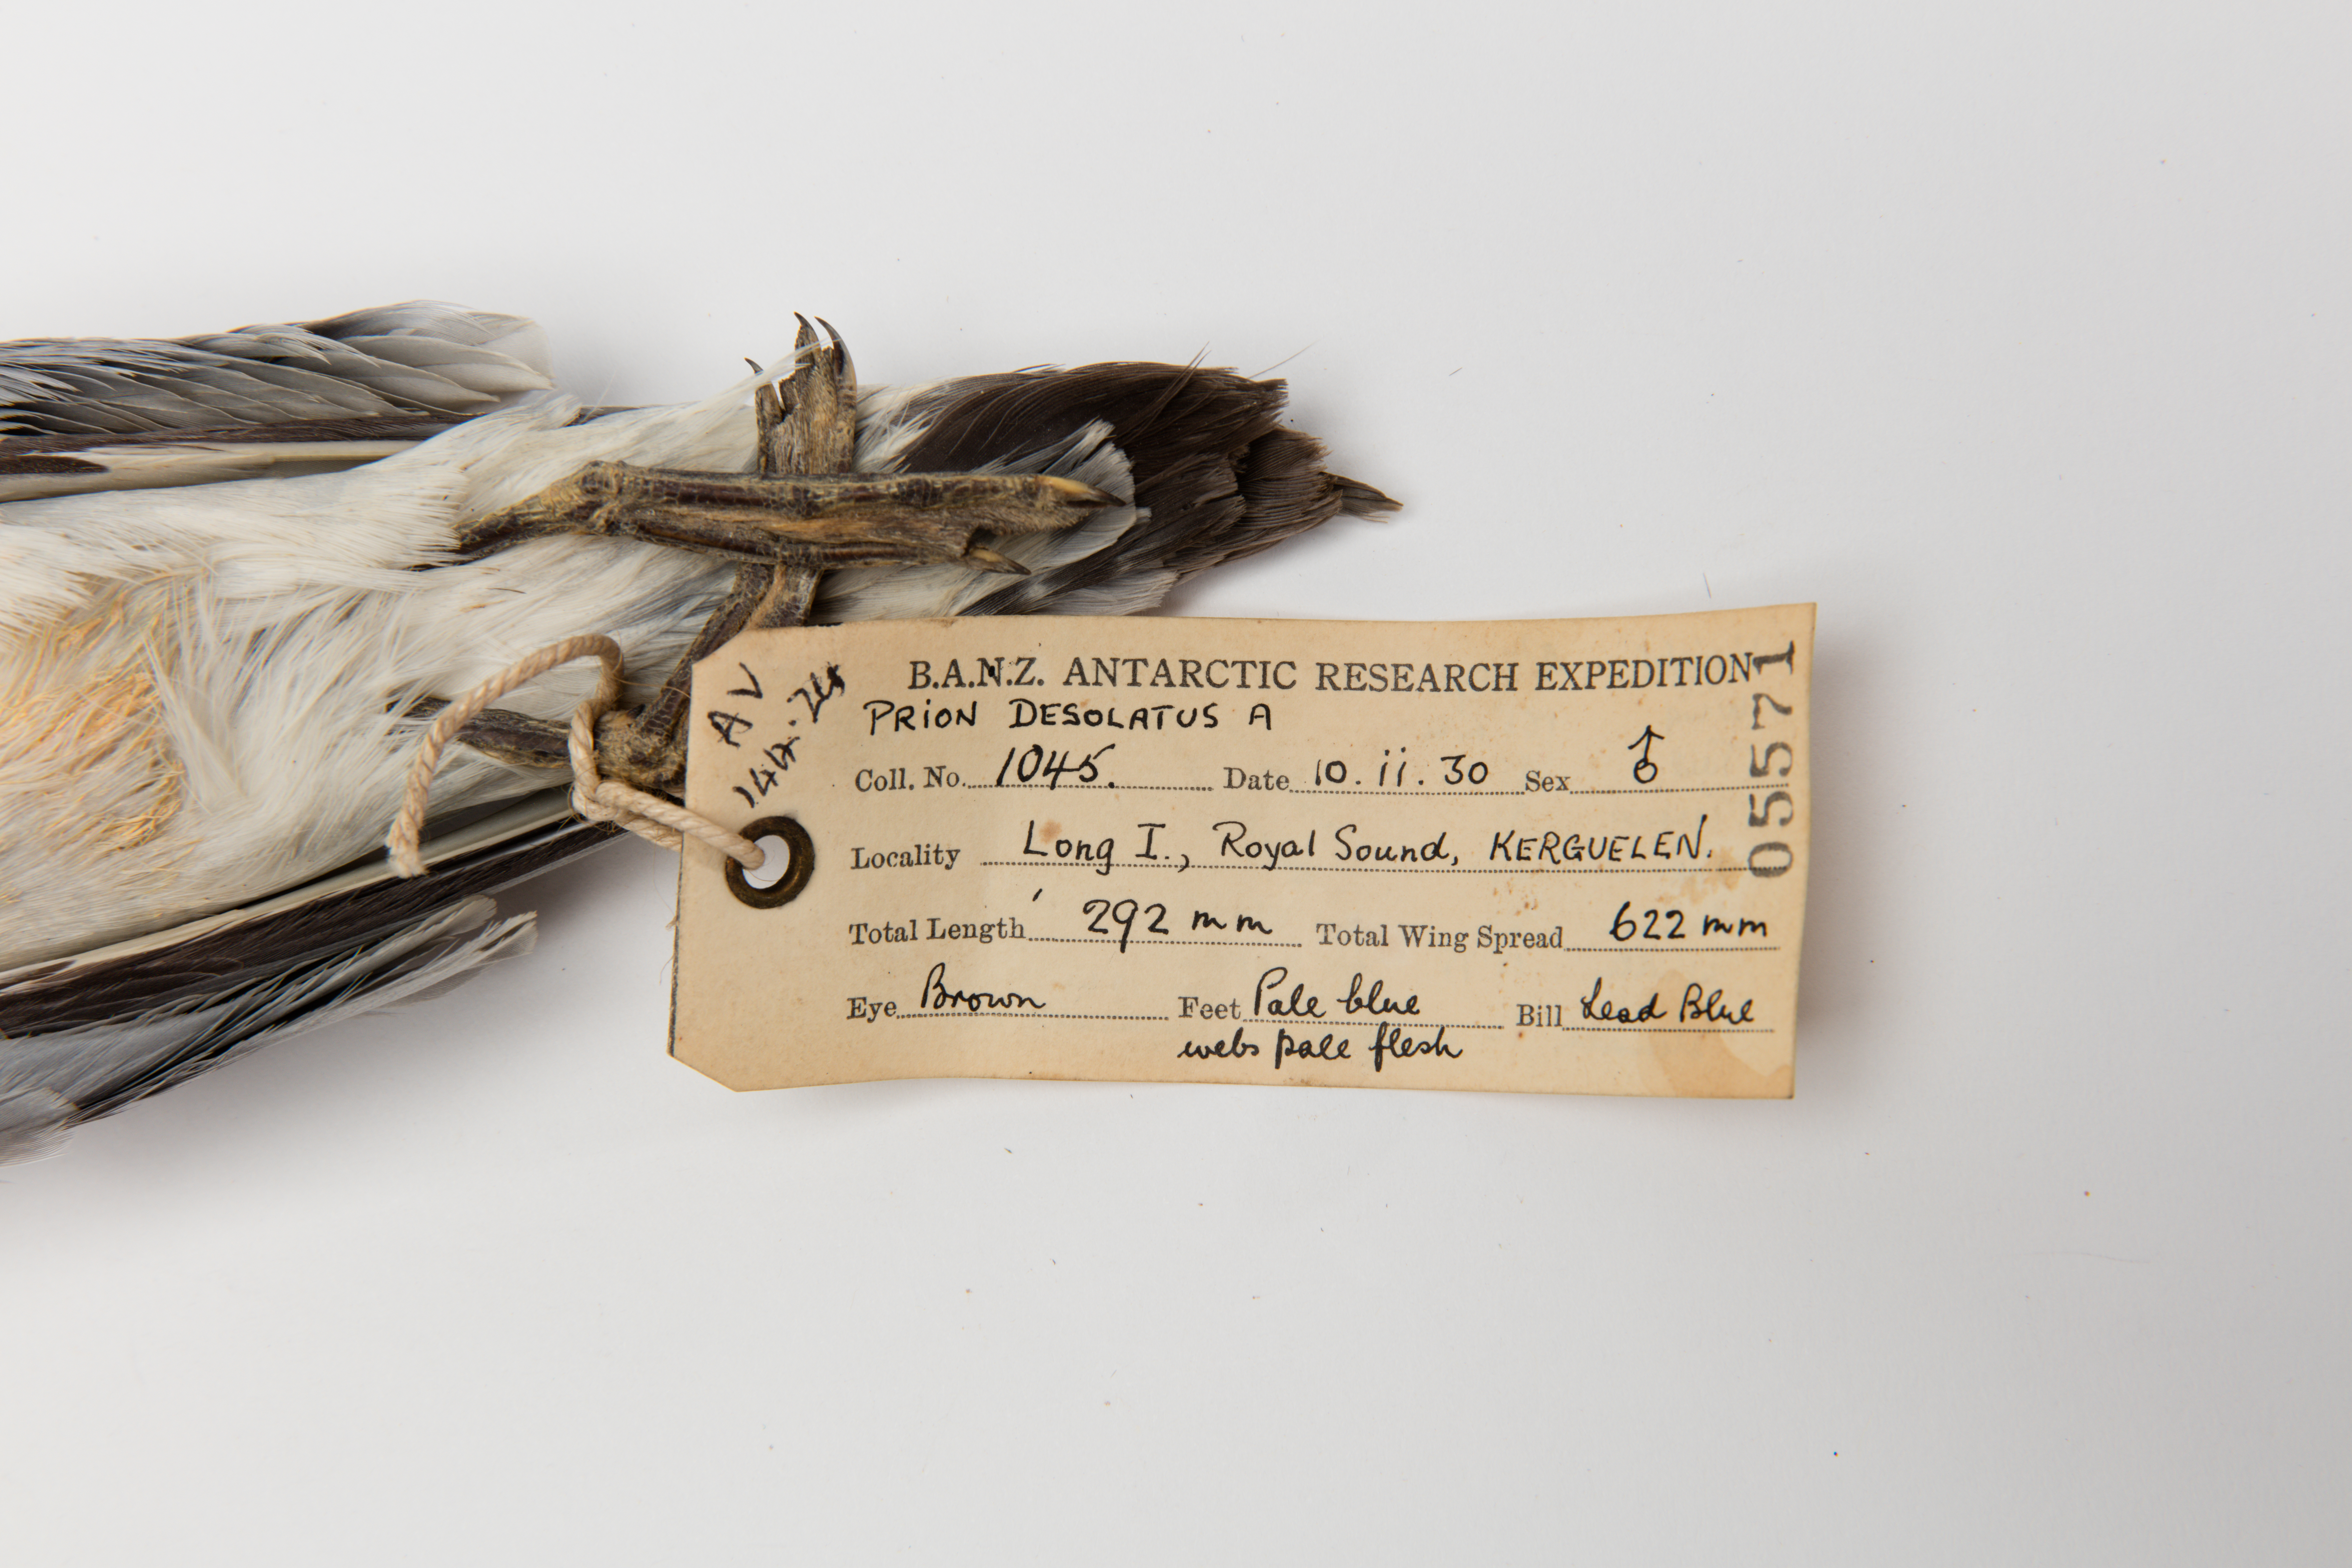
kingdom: Animalia
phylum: Chordata
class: Aves
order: Procellariiformes
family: Procellariidae
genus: Pachyptila
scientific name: Pachyptila desolata
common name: Antarctic prion
